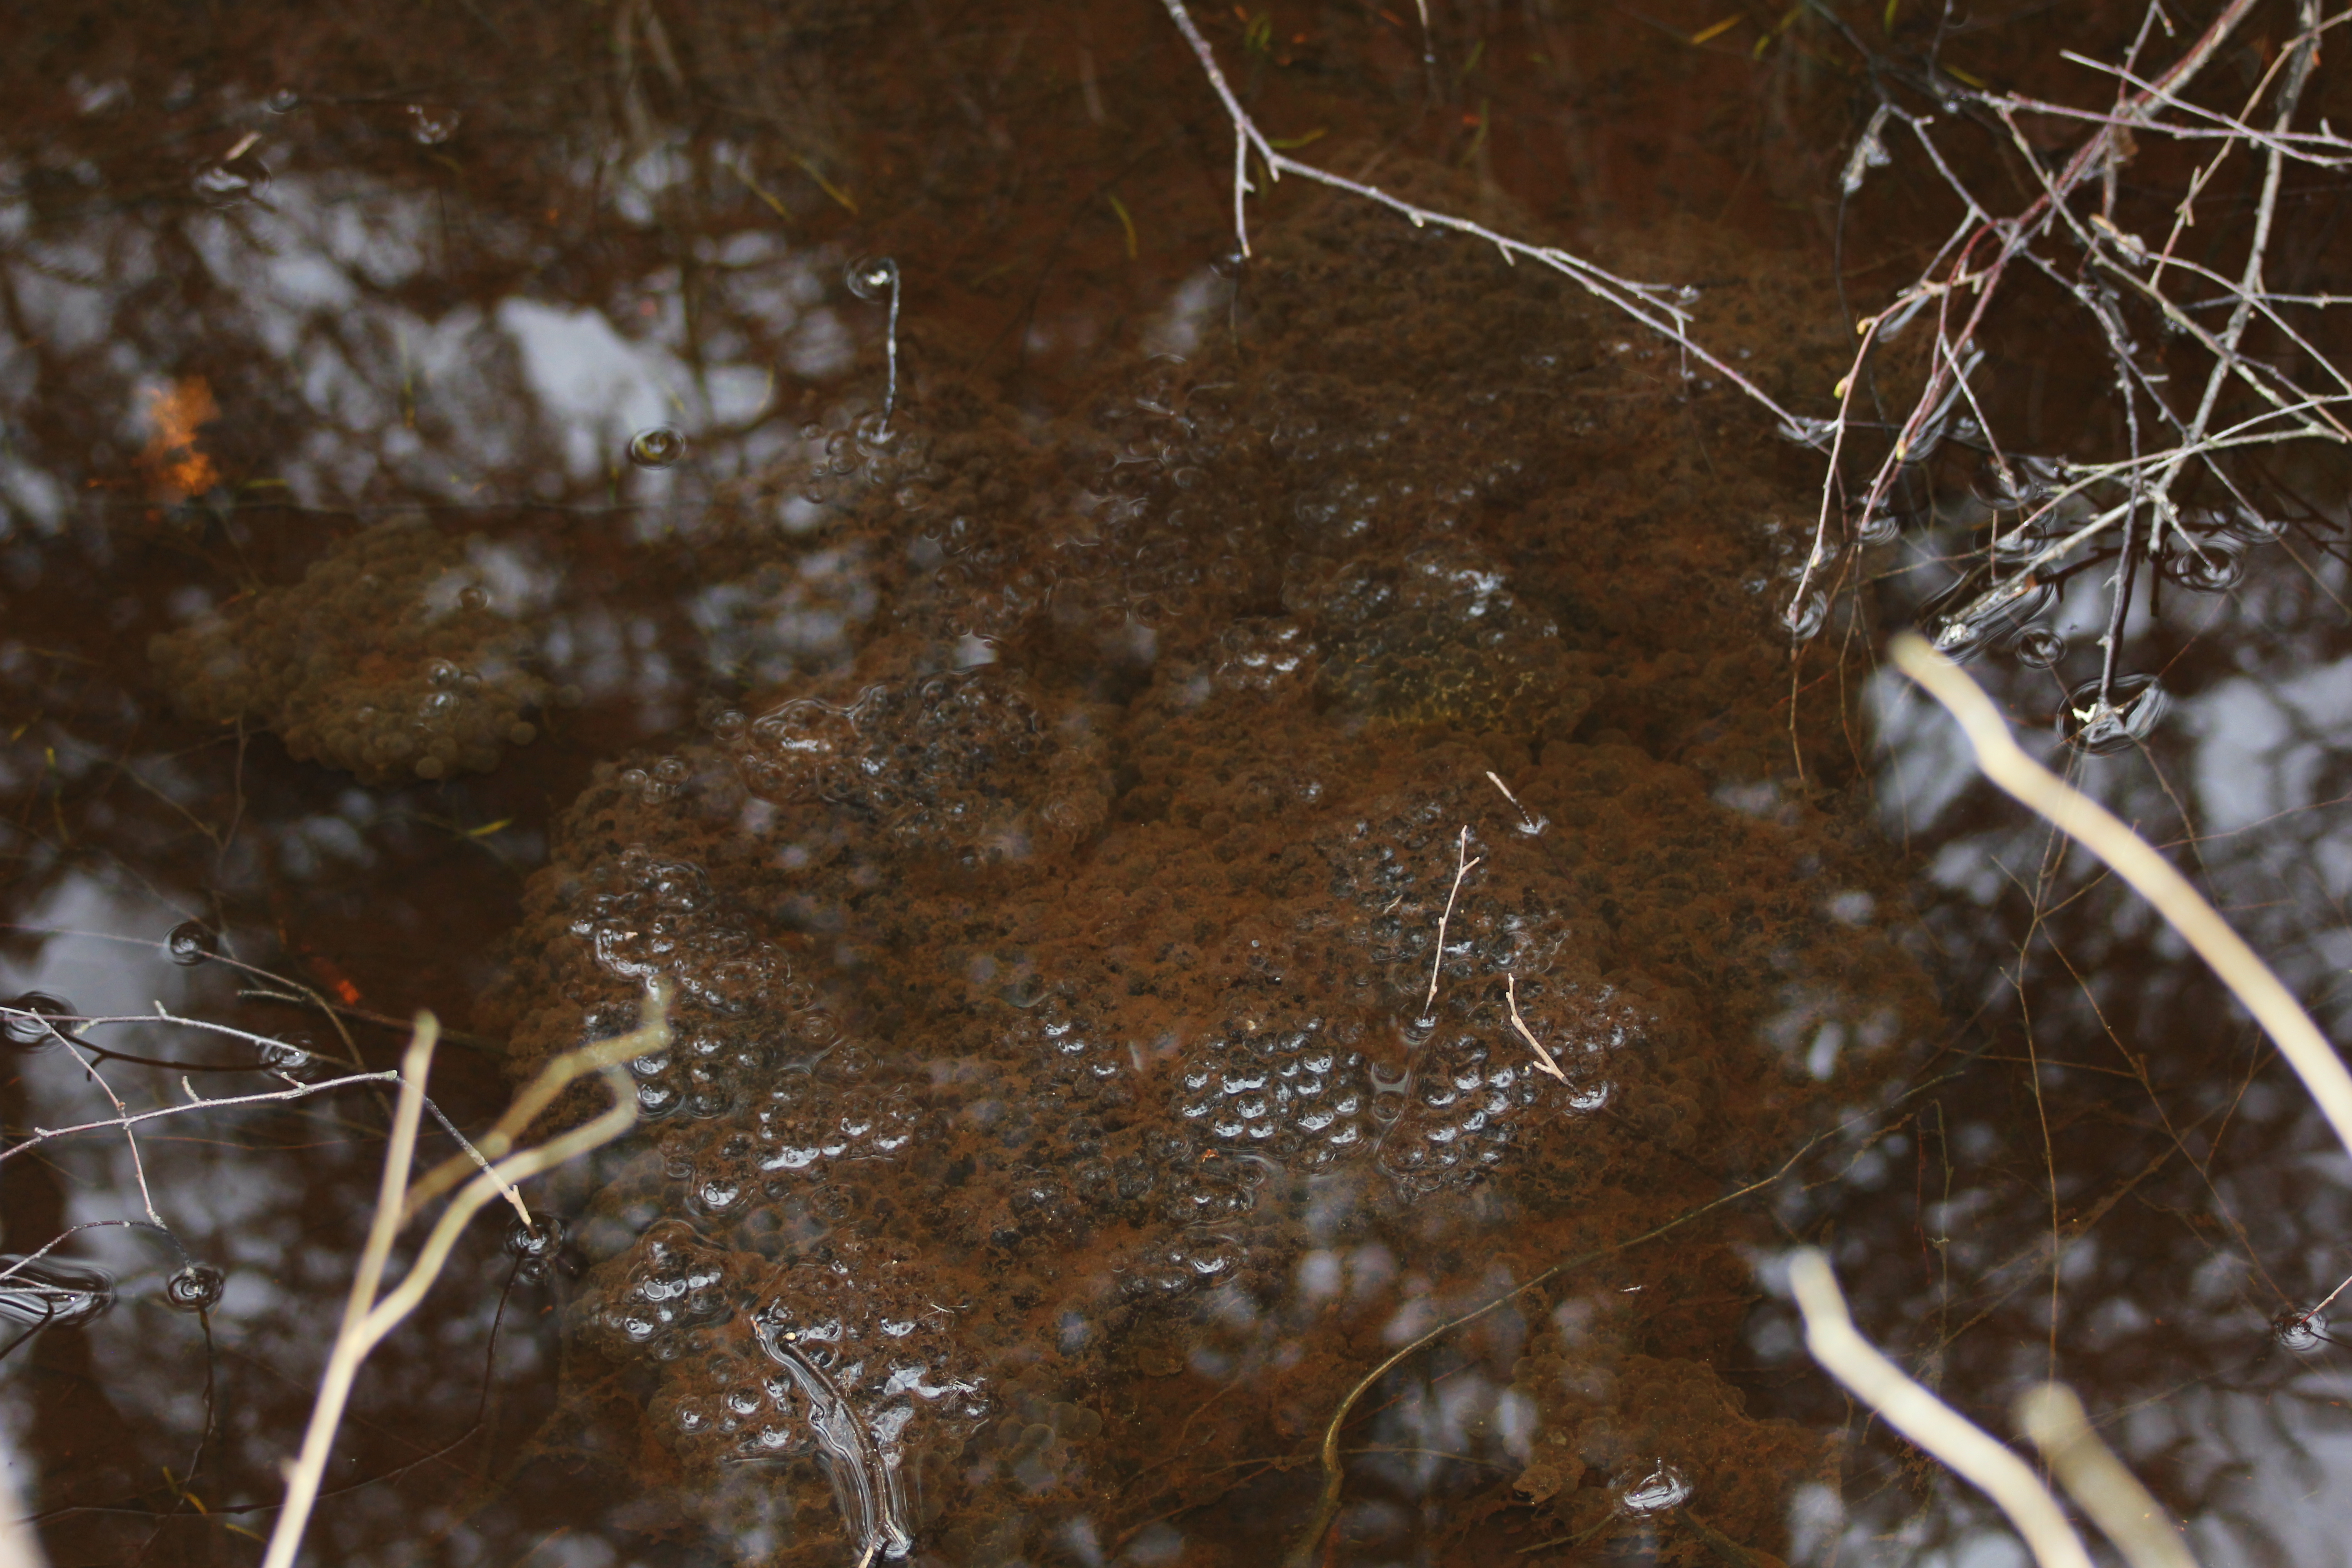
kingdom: Animalia
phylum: Chordata
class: Amphibia
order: Anura
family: Ranidae
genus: Rana
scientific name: Rana temporaria
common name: Common frog
